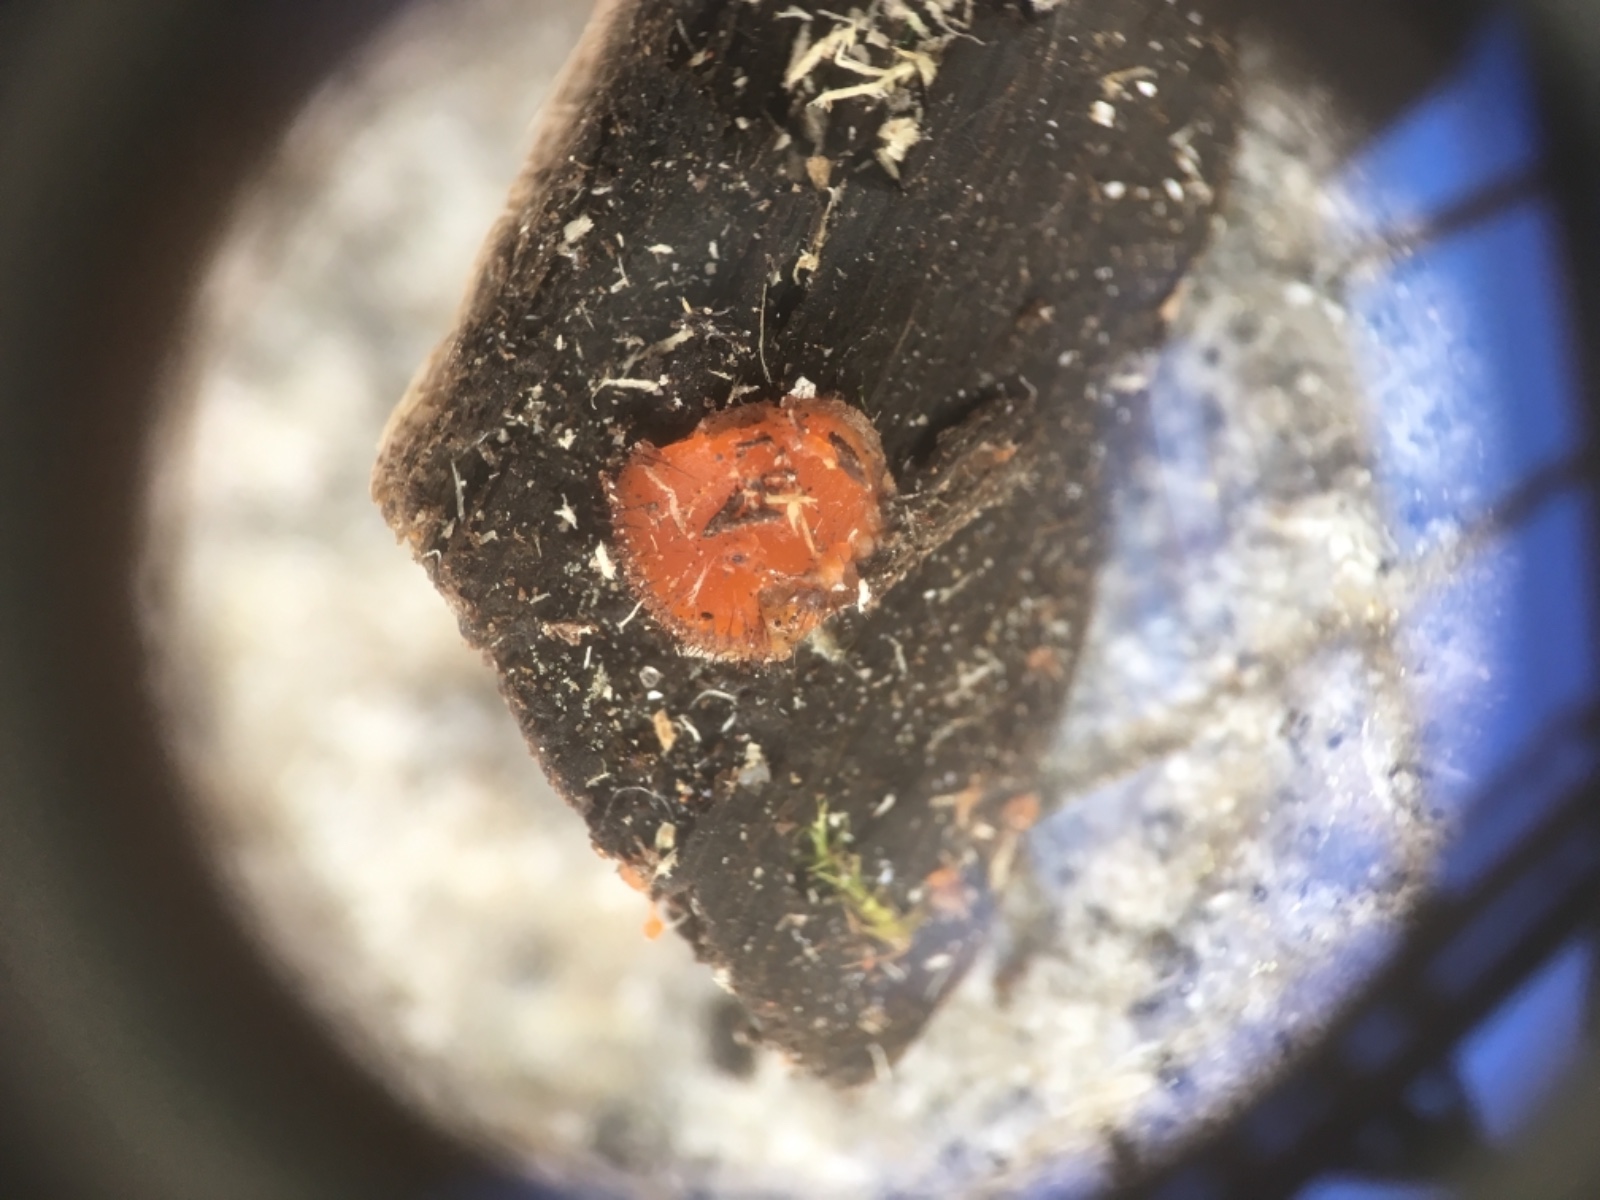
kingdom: Fungi
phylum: Ascomycota
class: Pezizomycetes
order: Pezizales
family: Pyronemataceae
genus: Scutellinia
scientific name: Scutellinia scutellata
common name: frynset skjoldbæger
